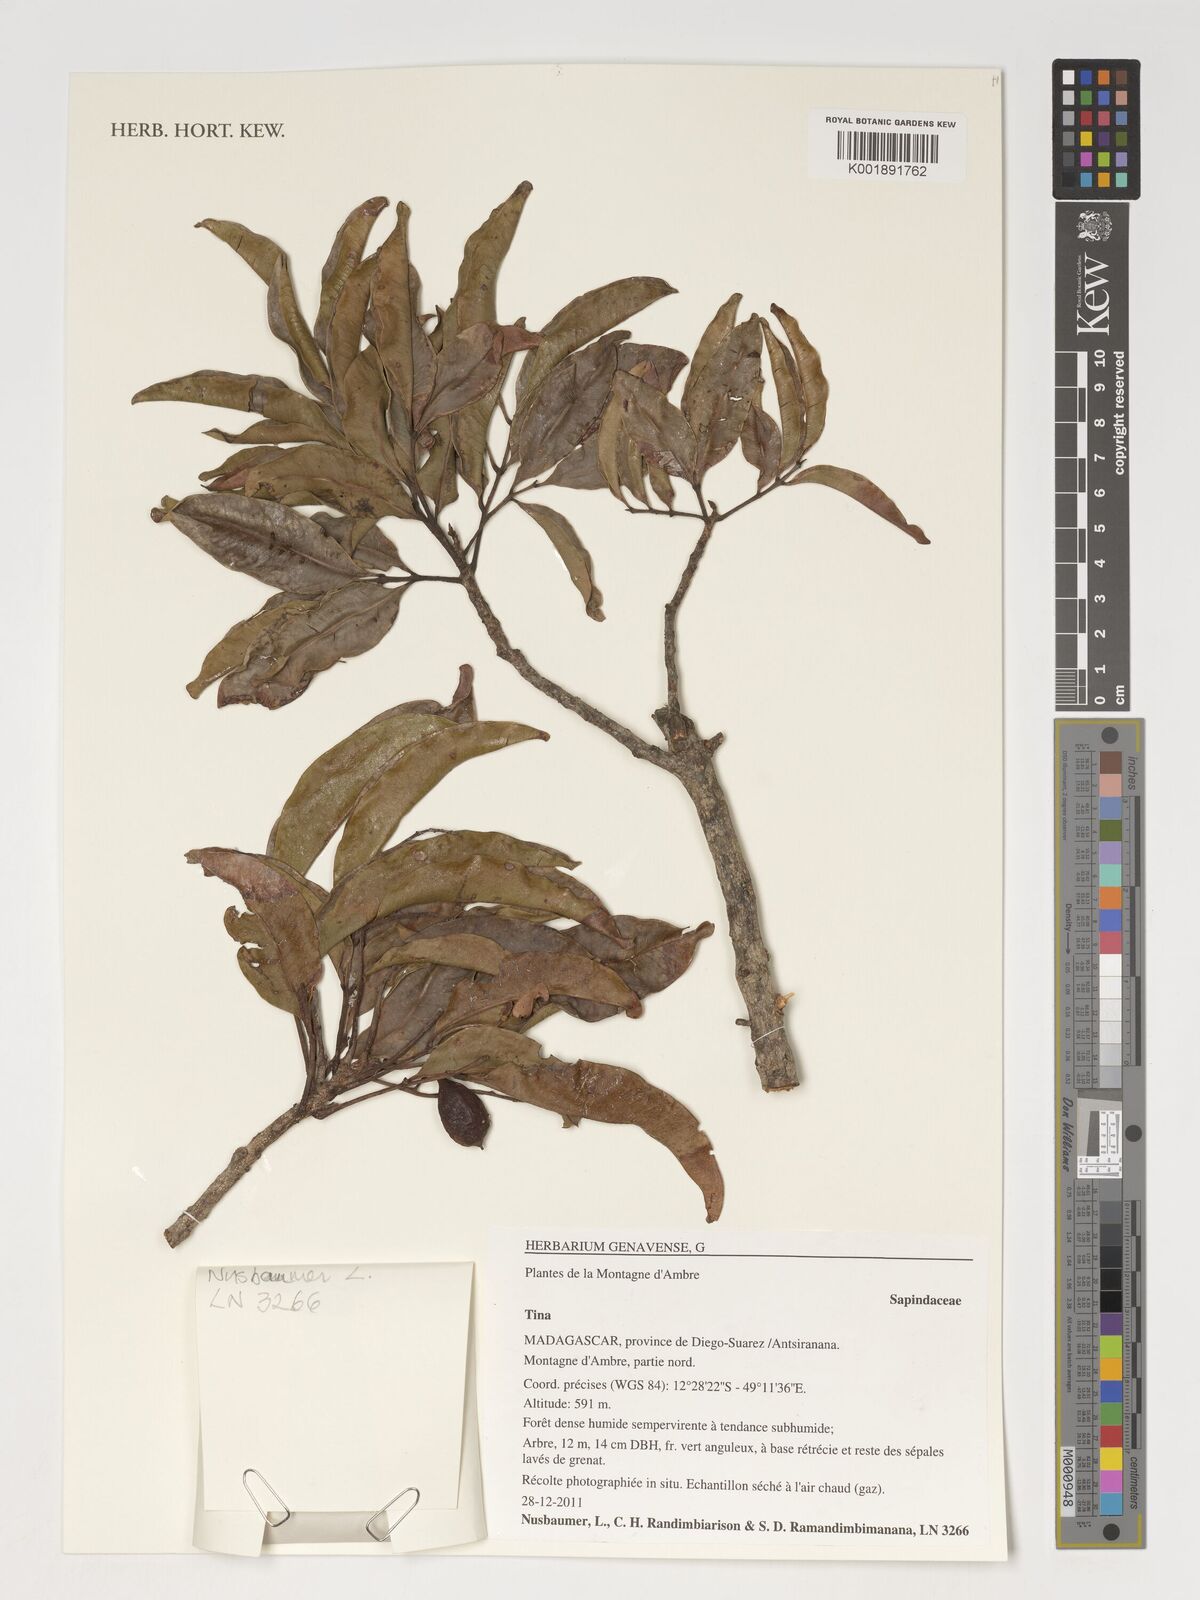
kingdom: Plantae
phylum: Tracheophyta
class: Magnoliopsida
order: Sapindales
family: Sapindaceae
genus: Tina
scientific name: Tina
